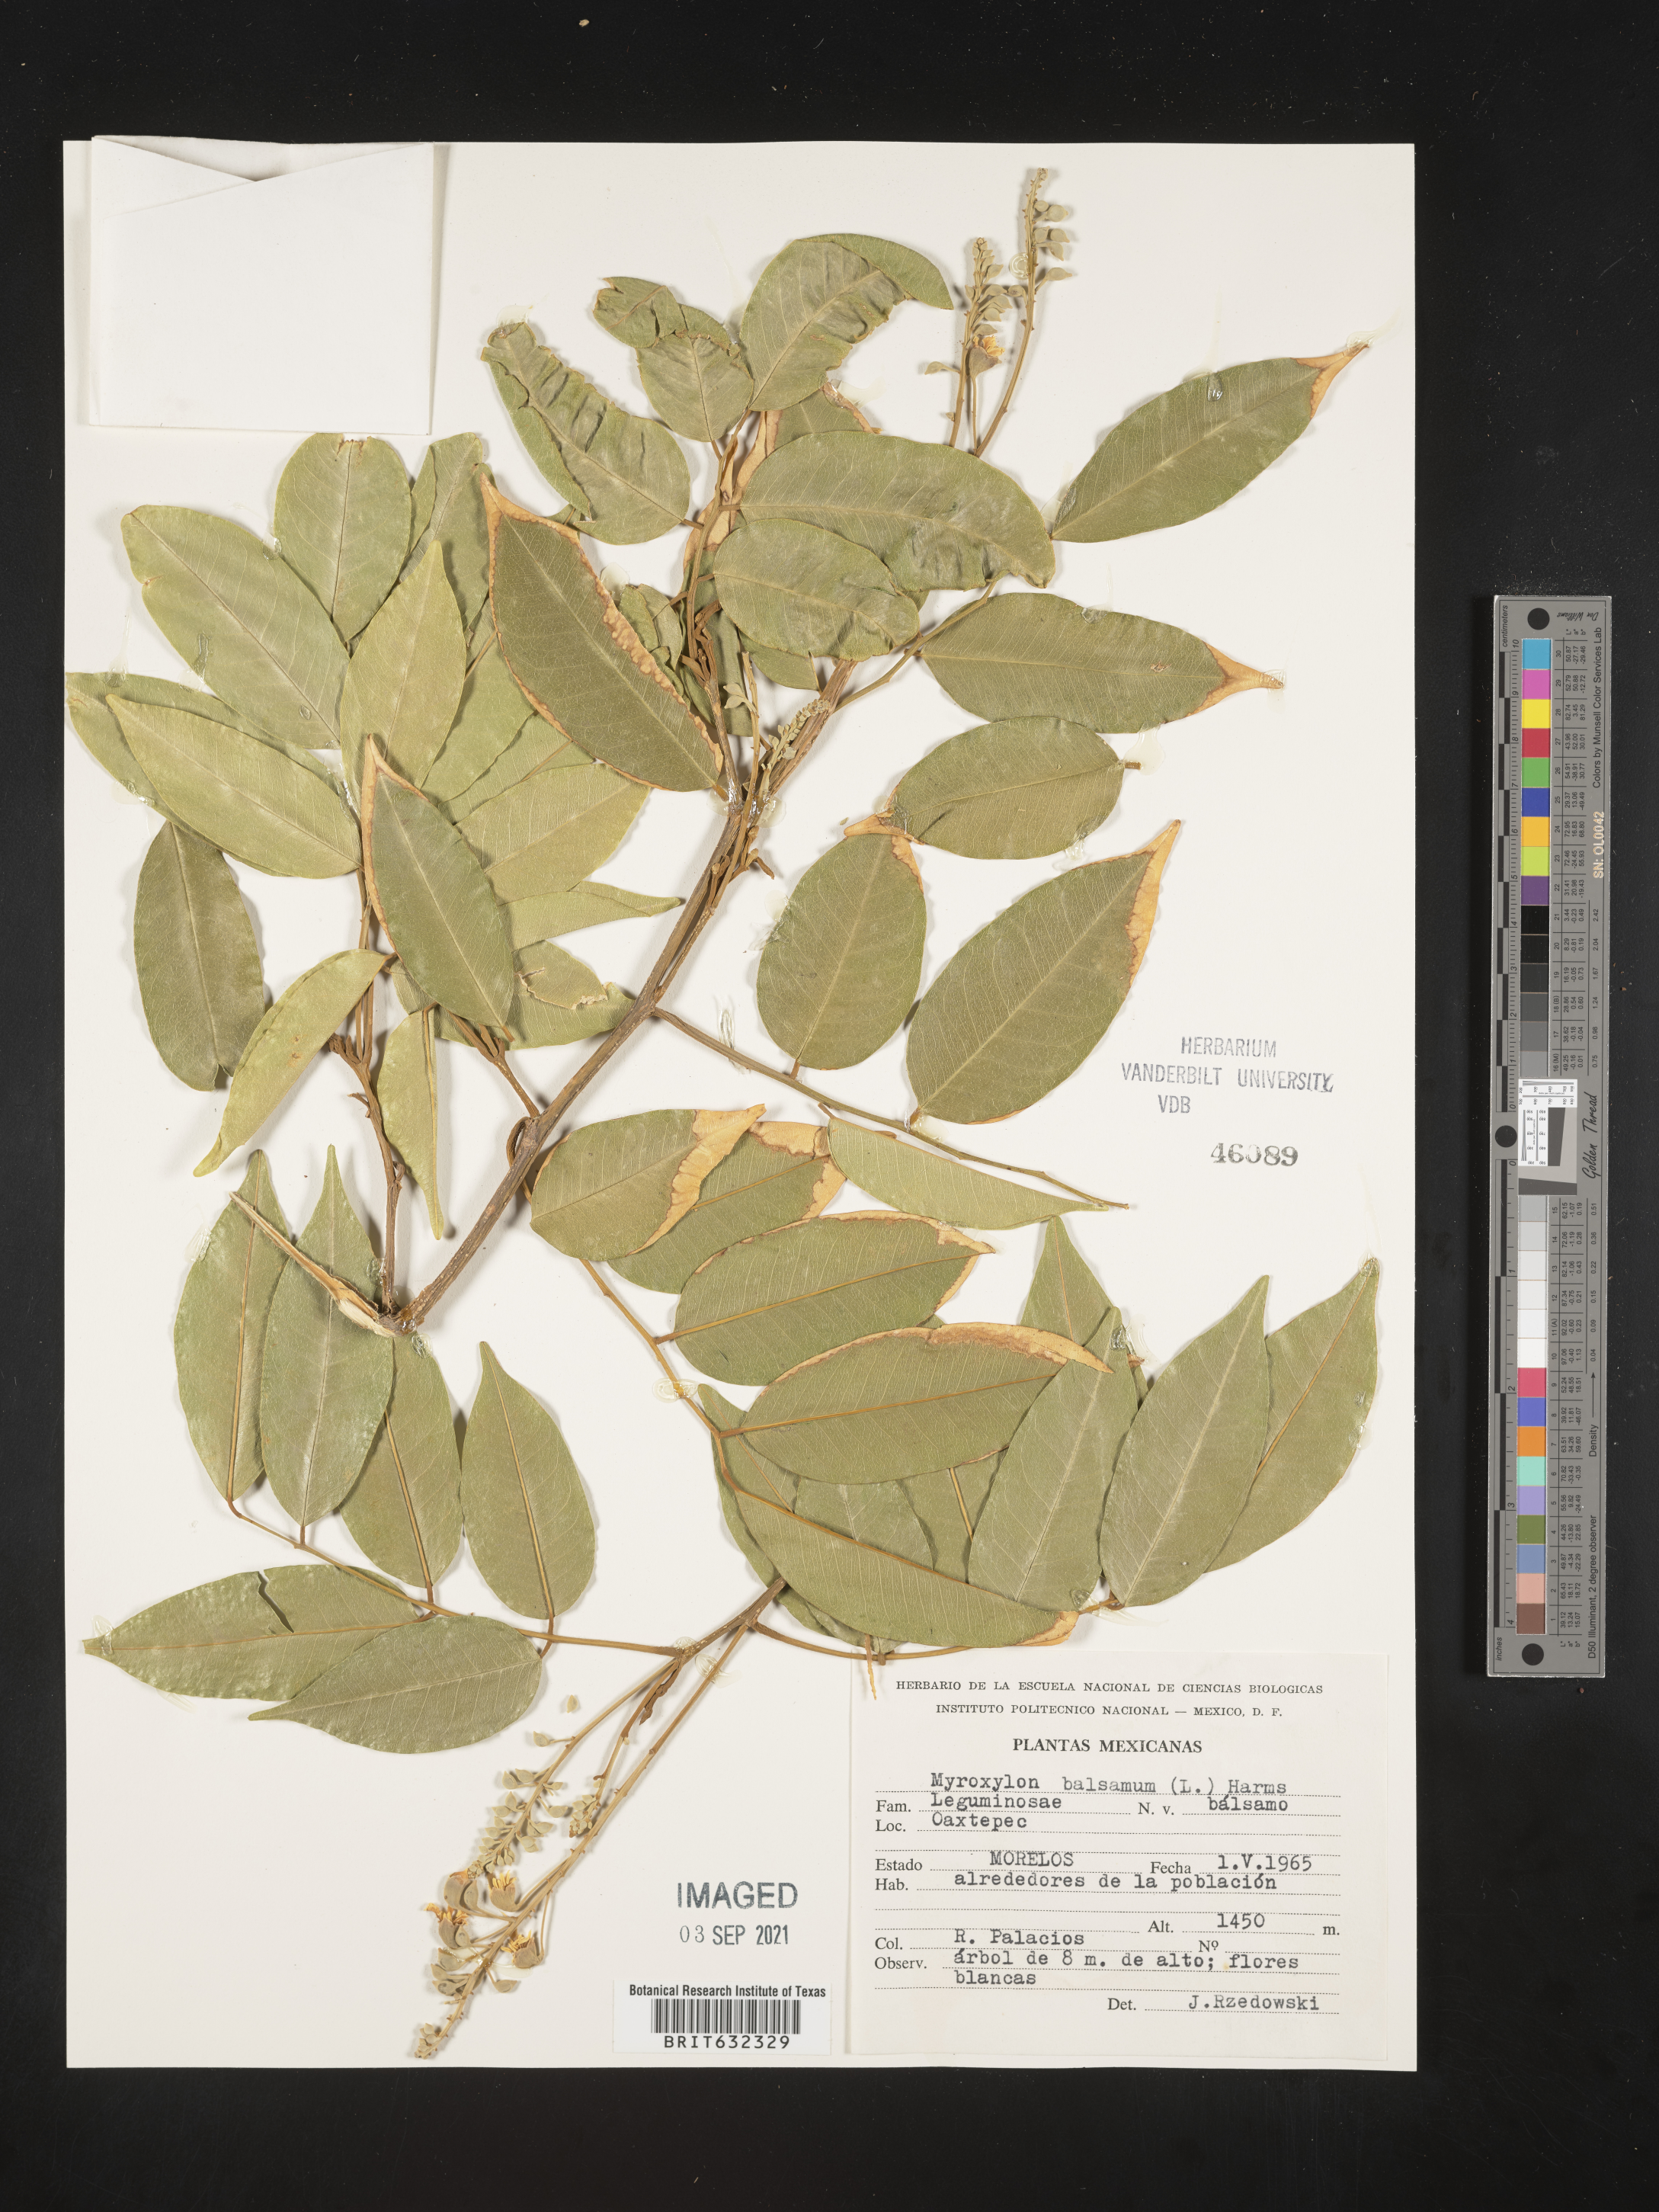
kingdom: Plantae
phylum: Tracheophyta
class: Magnoliopsida
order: Fabales
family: Fabaceae
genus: Myroxylon
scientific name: Myroxylon balsamum
